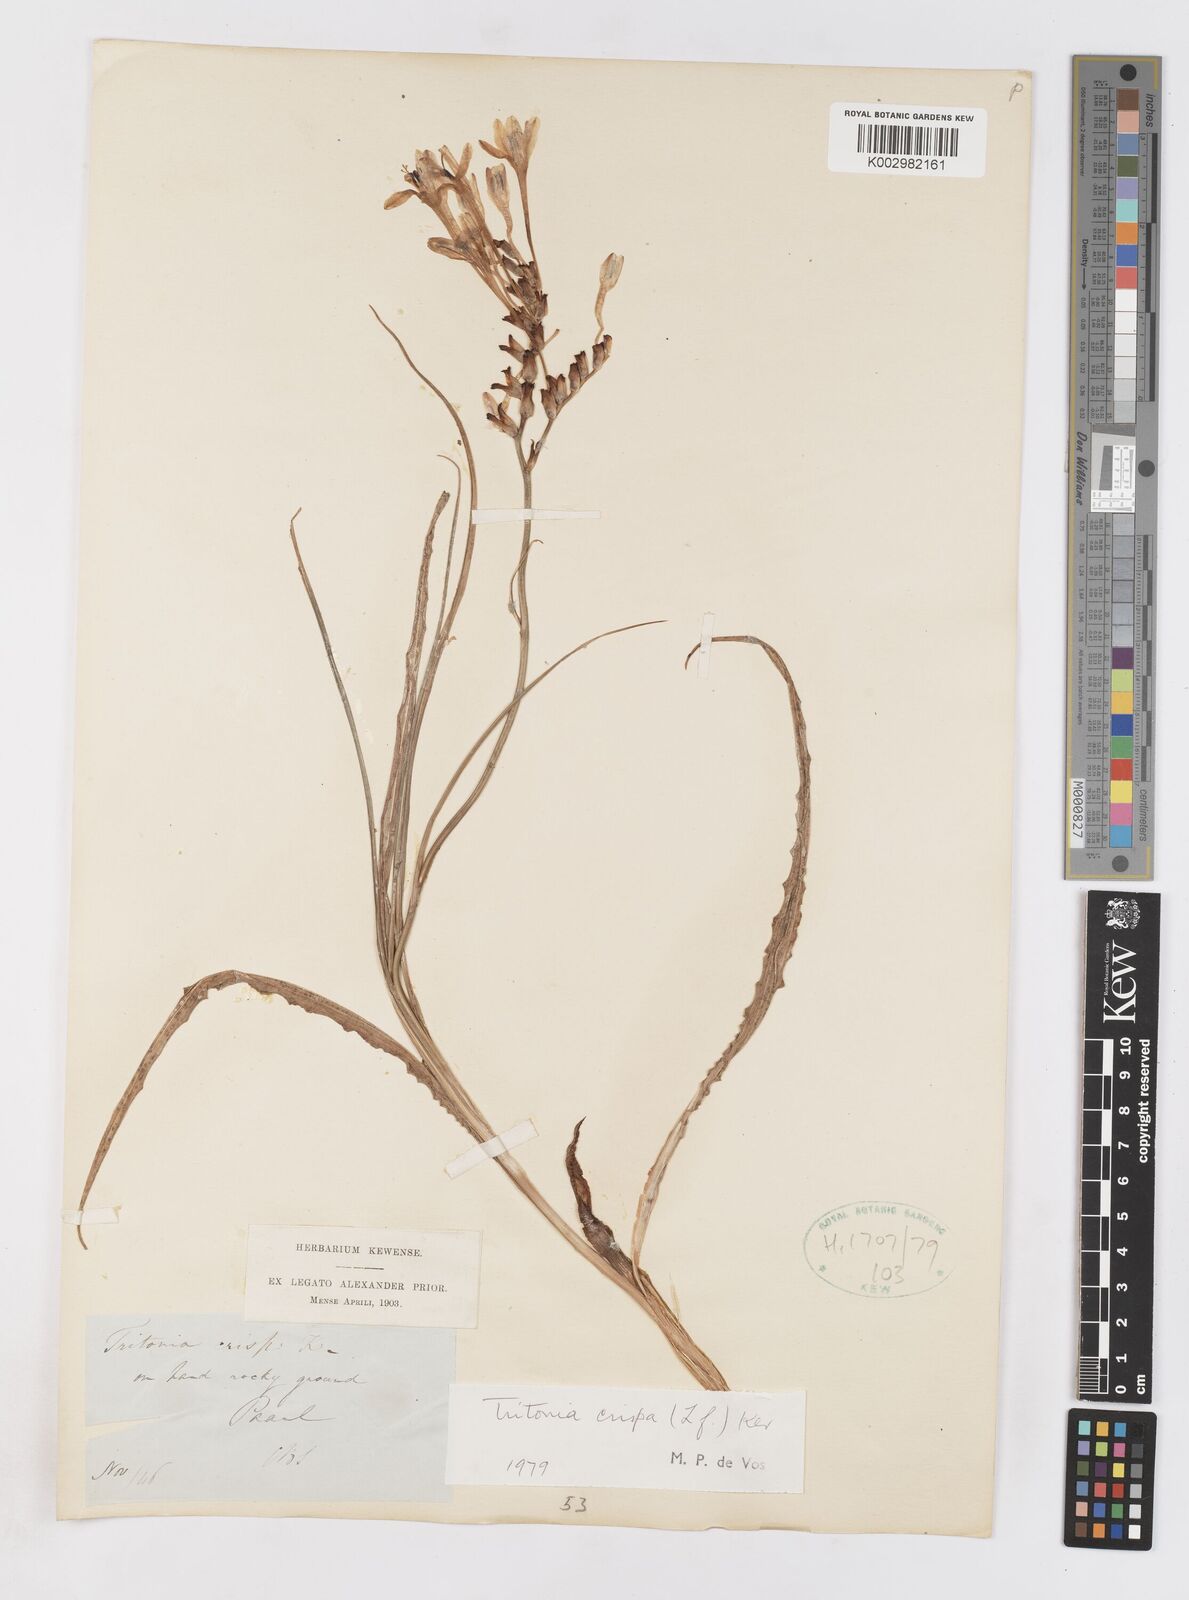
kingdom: Plantae
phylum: Tracheophyta
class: Liliopsida
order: Asparagales
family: Iridaceae
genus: Tritonia
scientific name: Tritonia undulata
